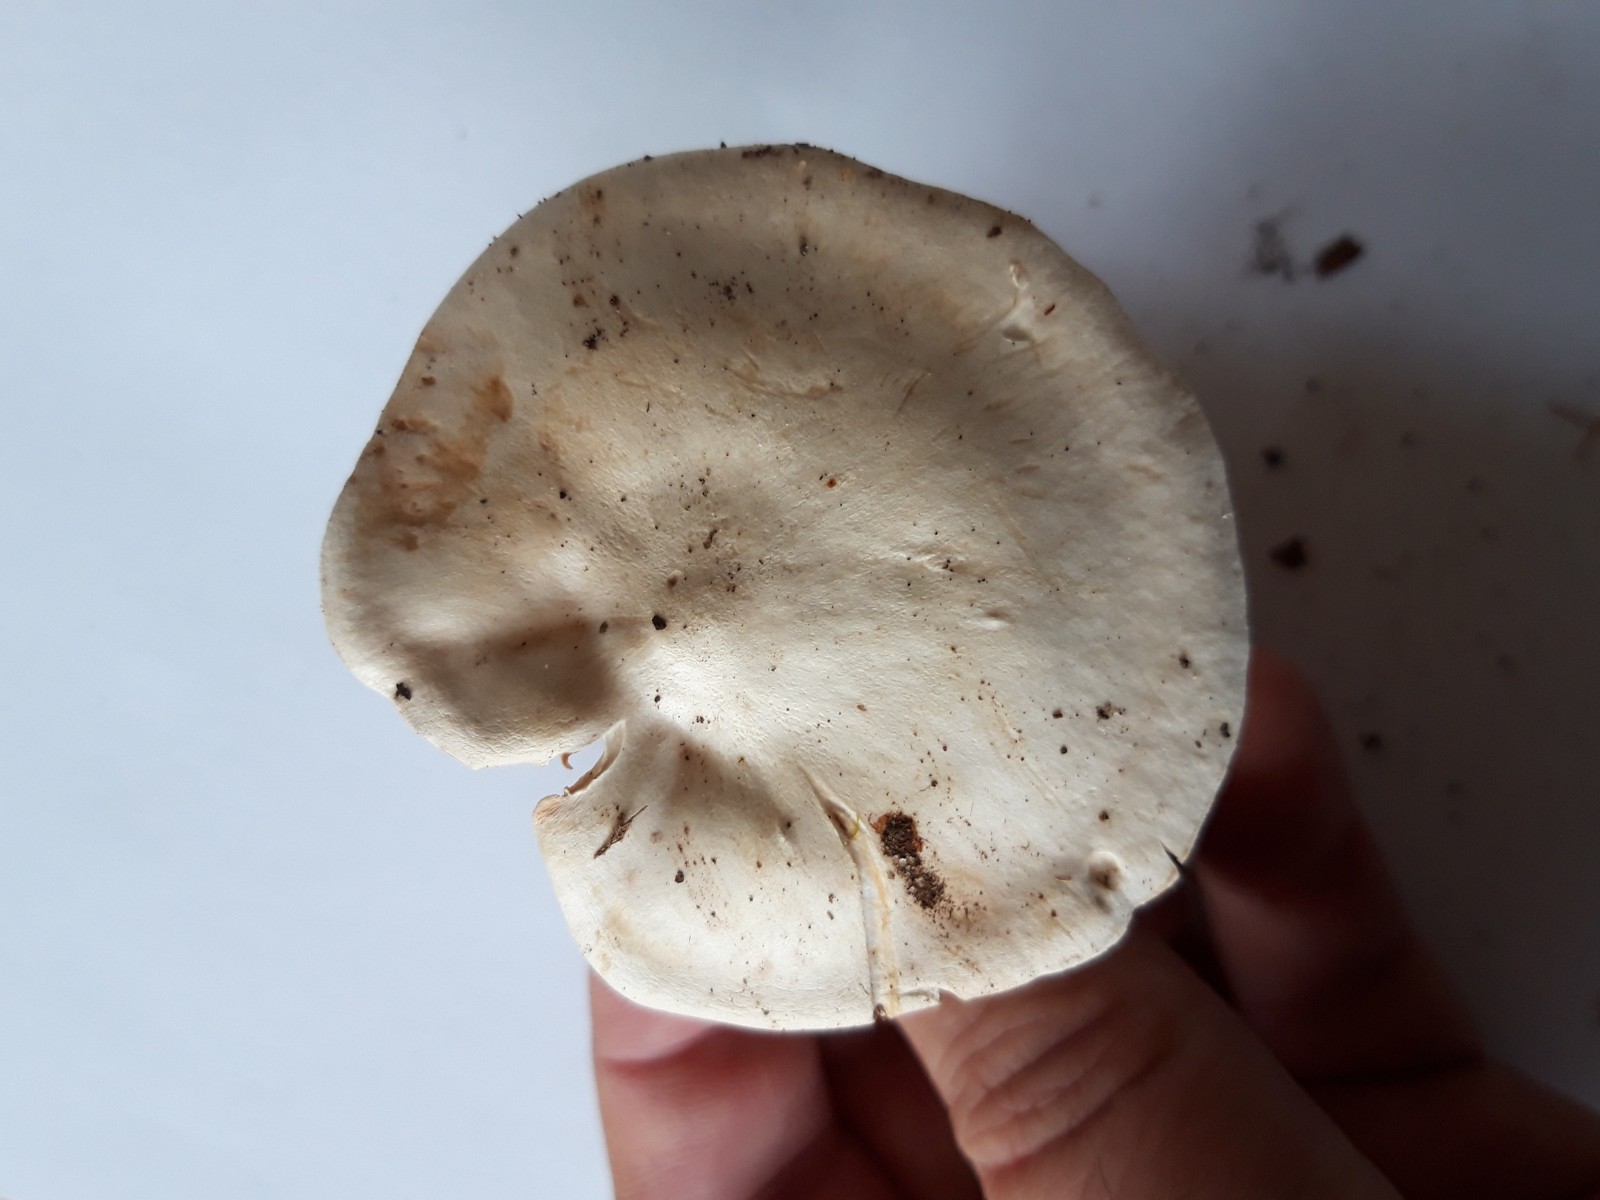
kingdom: Fungi
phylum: Basidiomycota
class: Agaricomycetes
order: Agaricales
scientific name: Agaricales
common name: champignonordenen
